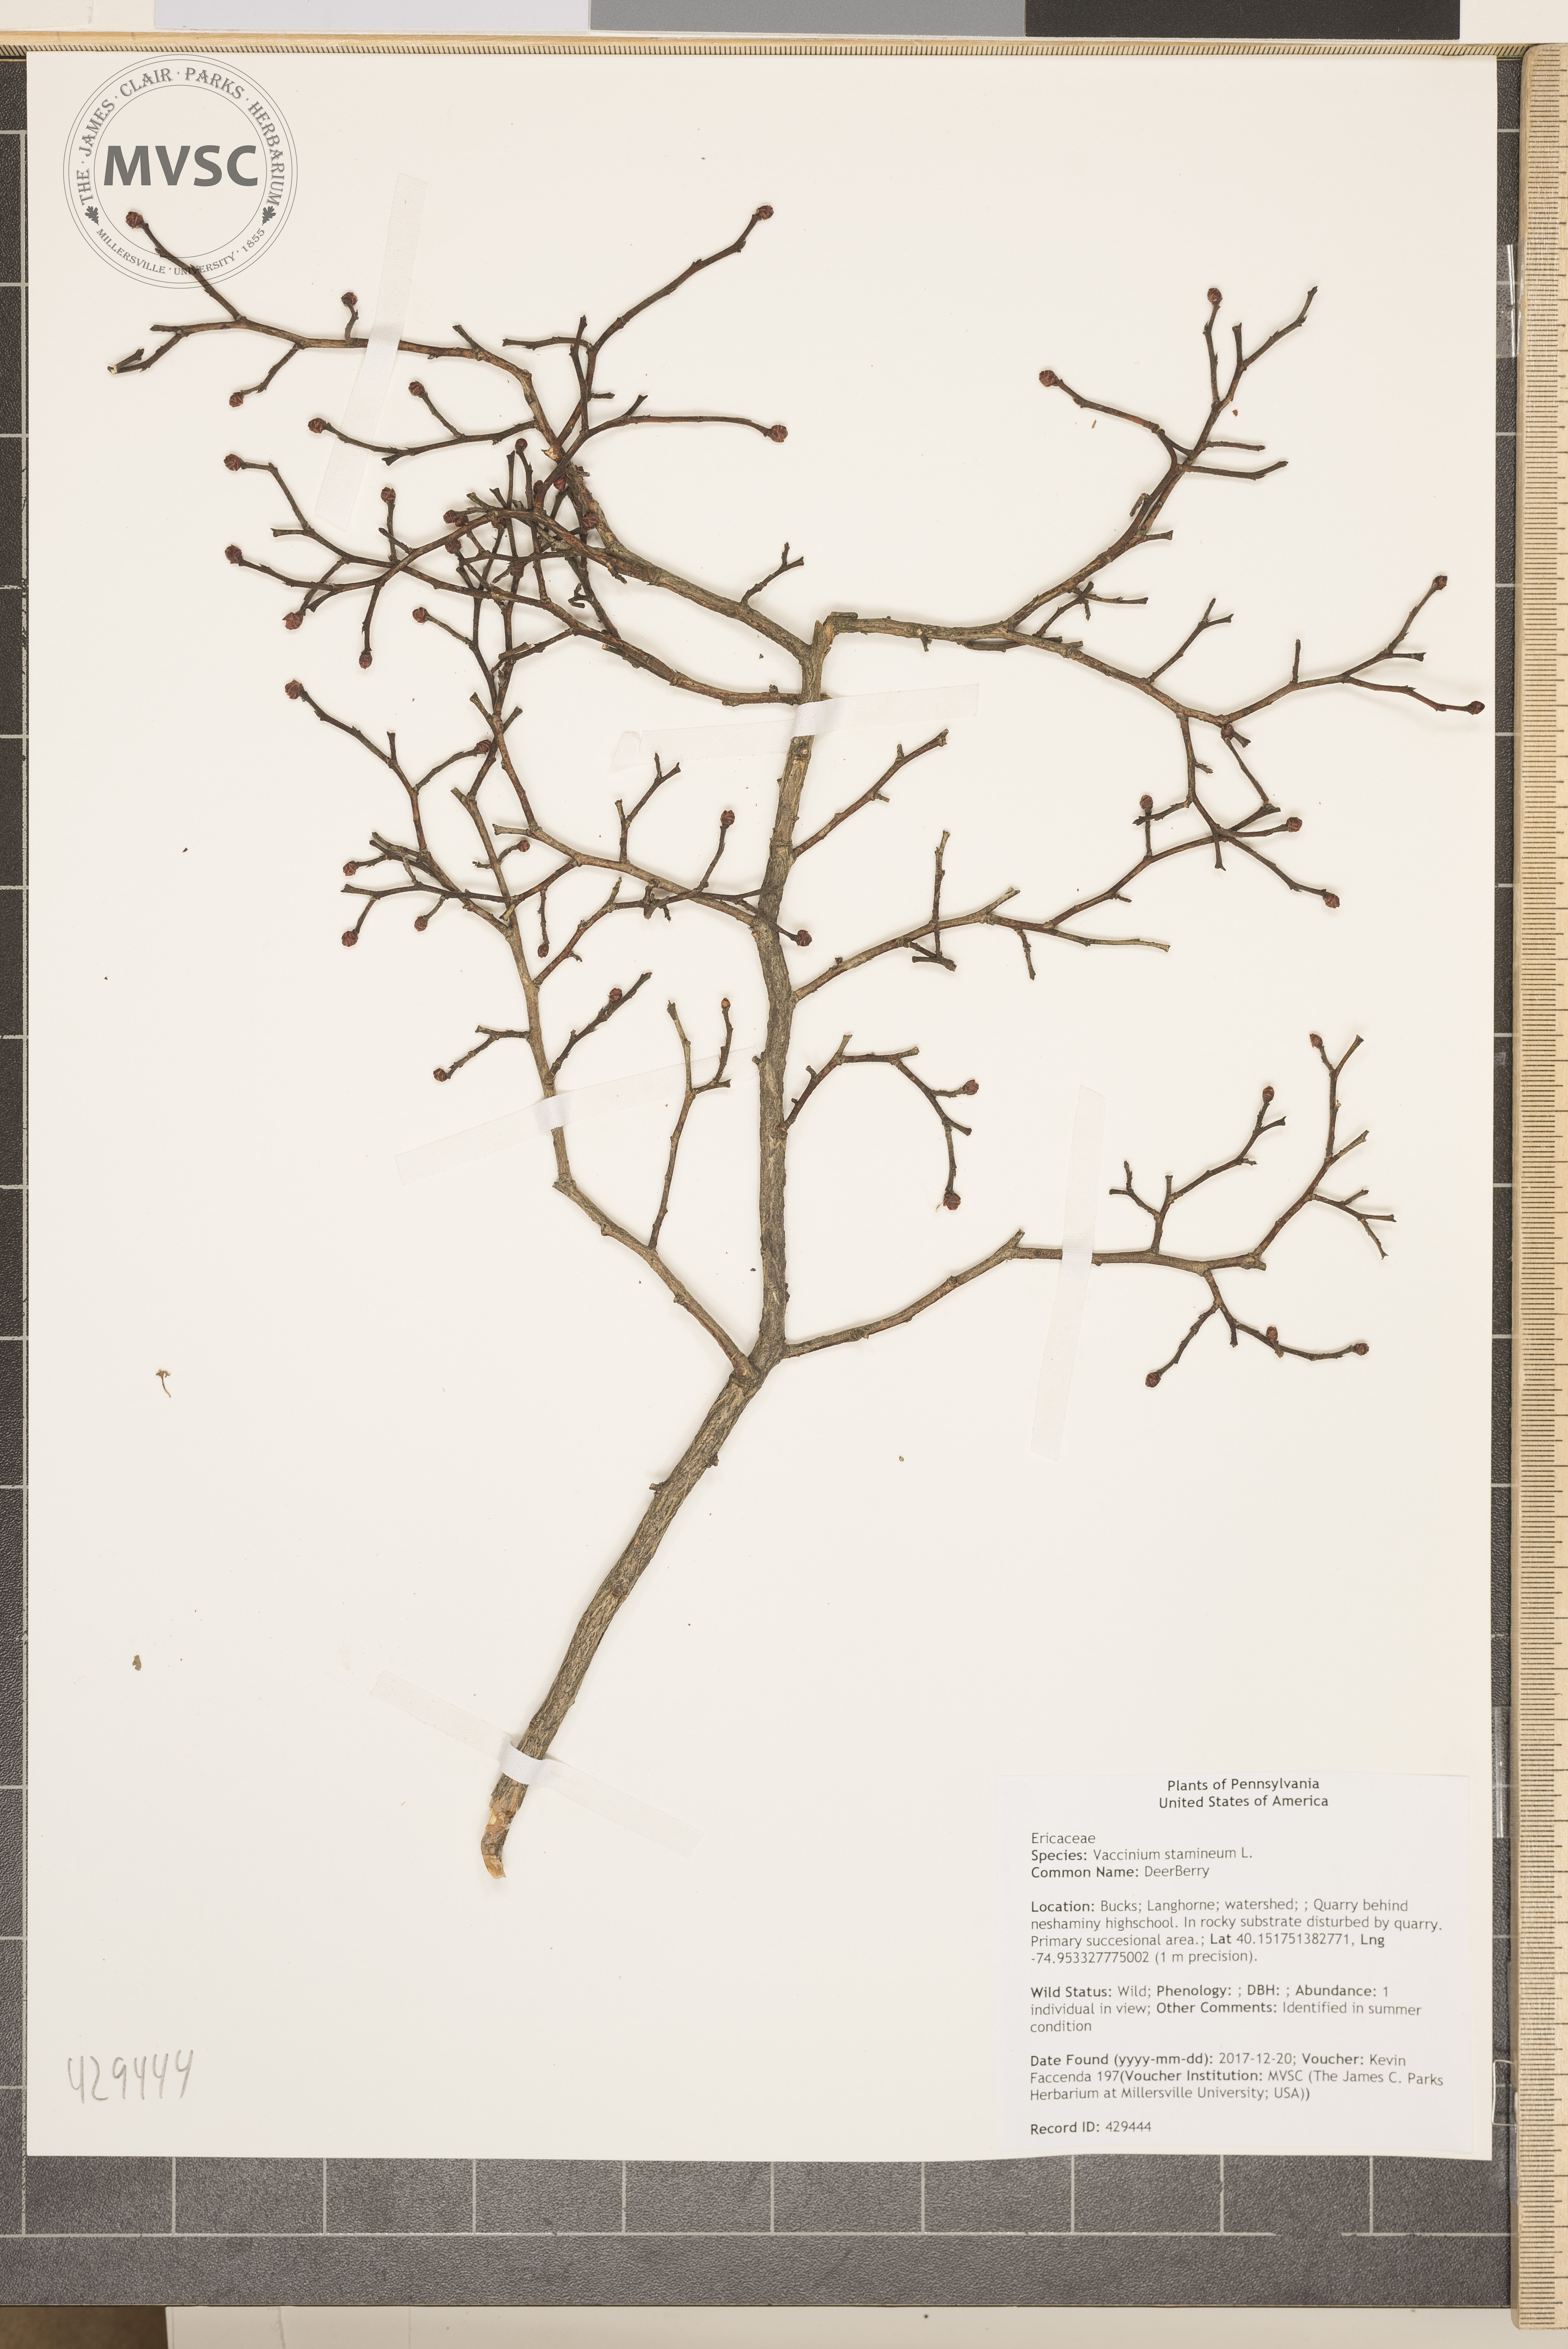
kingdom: Plantae
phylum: Tracheophyta
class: Magnoliopsida
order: Ericales
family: Ericaceae
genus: Vaccinium
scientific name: Vaccinium stamineum
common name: DeerBerry
